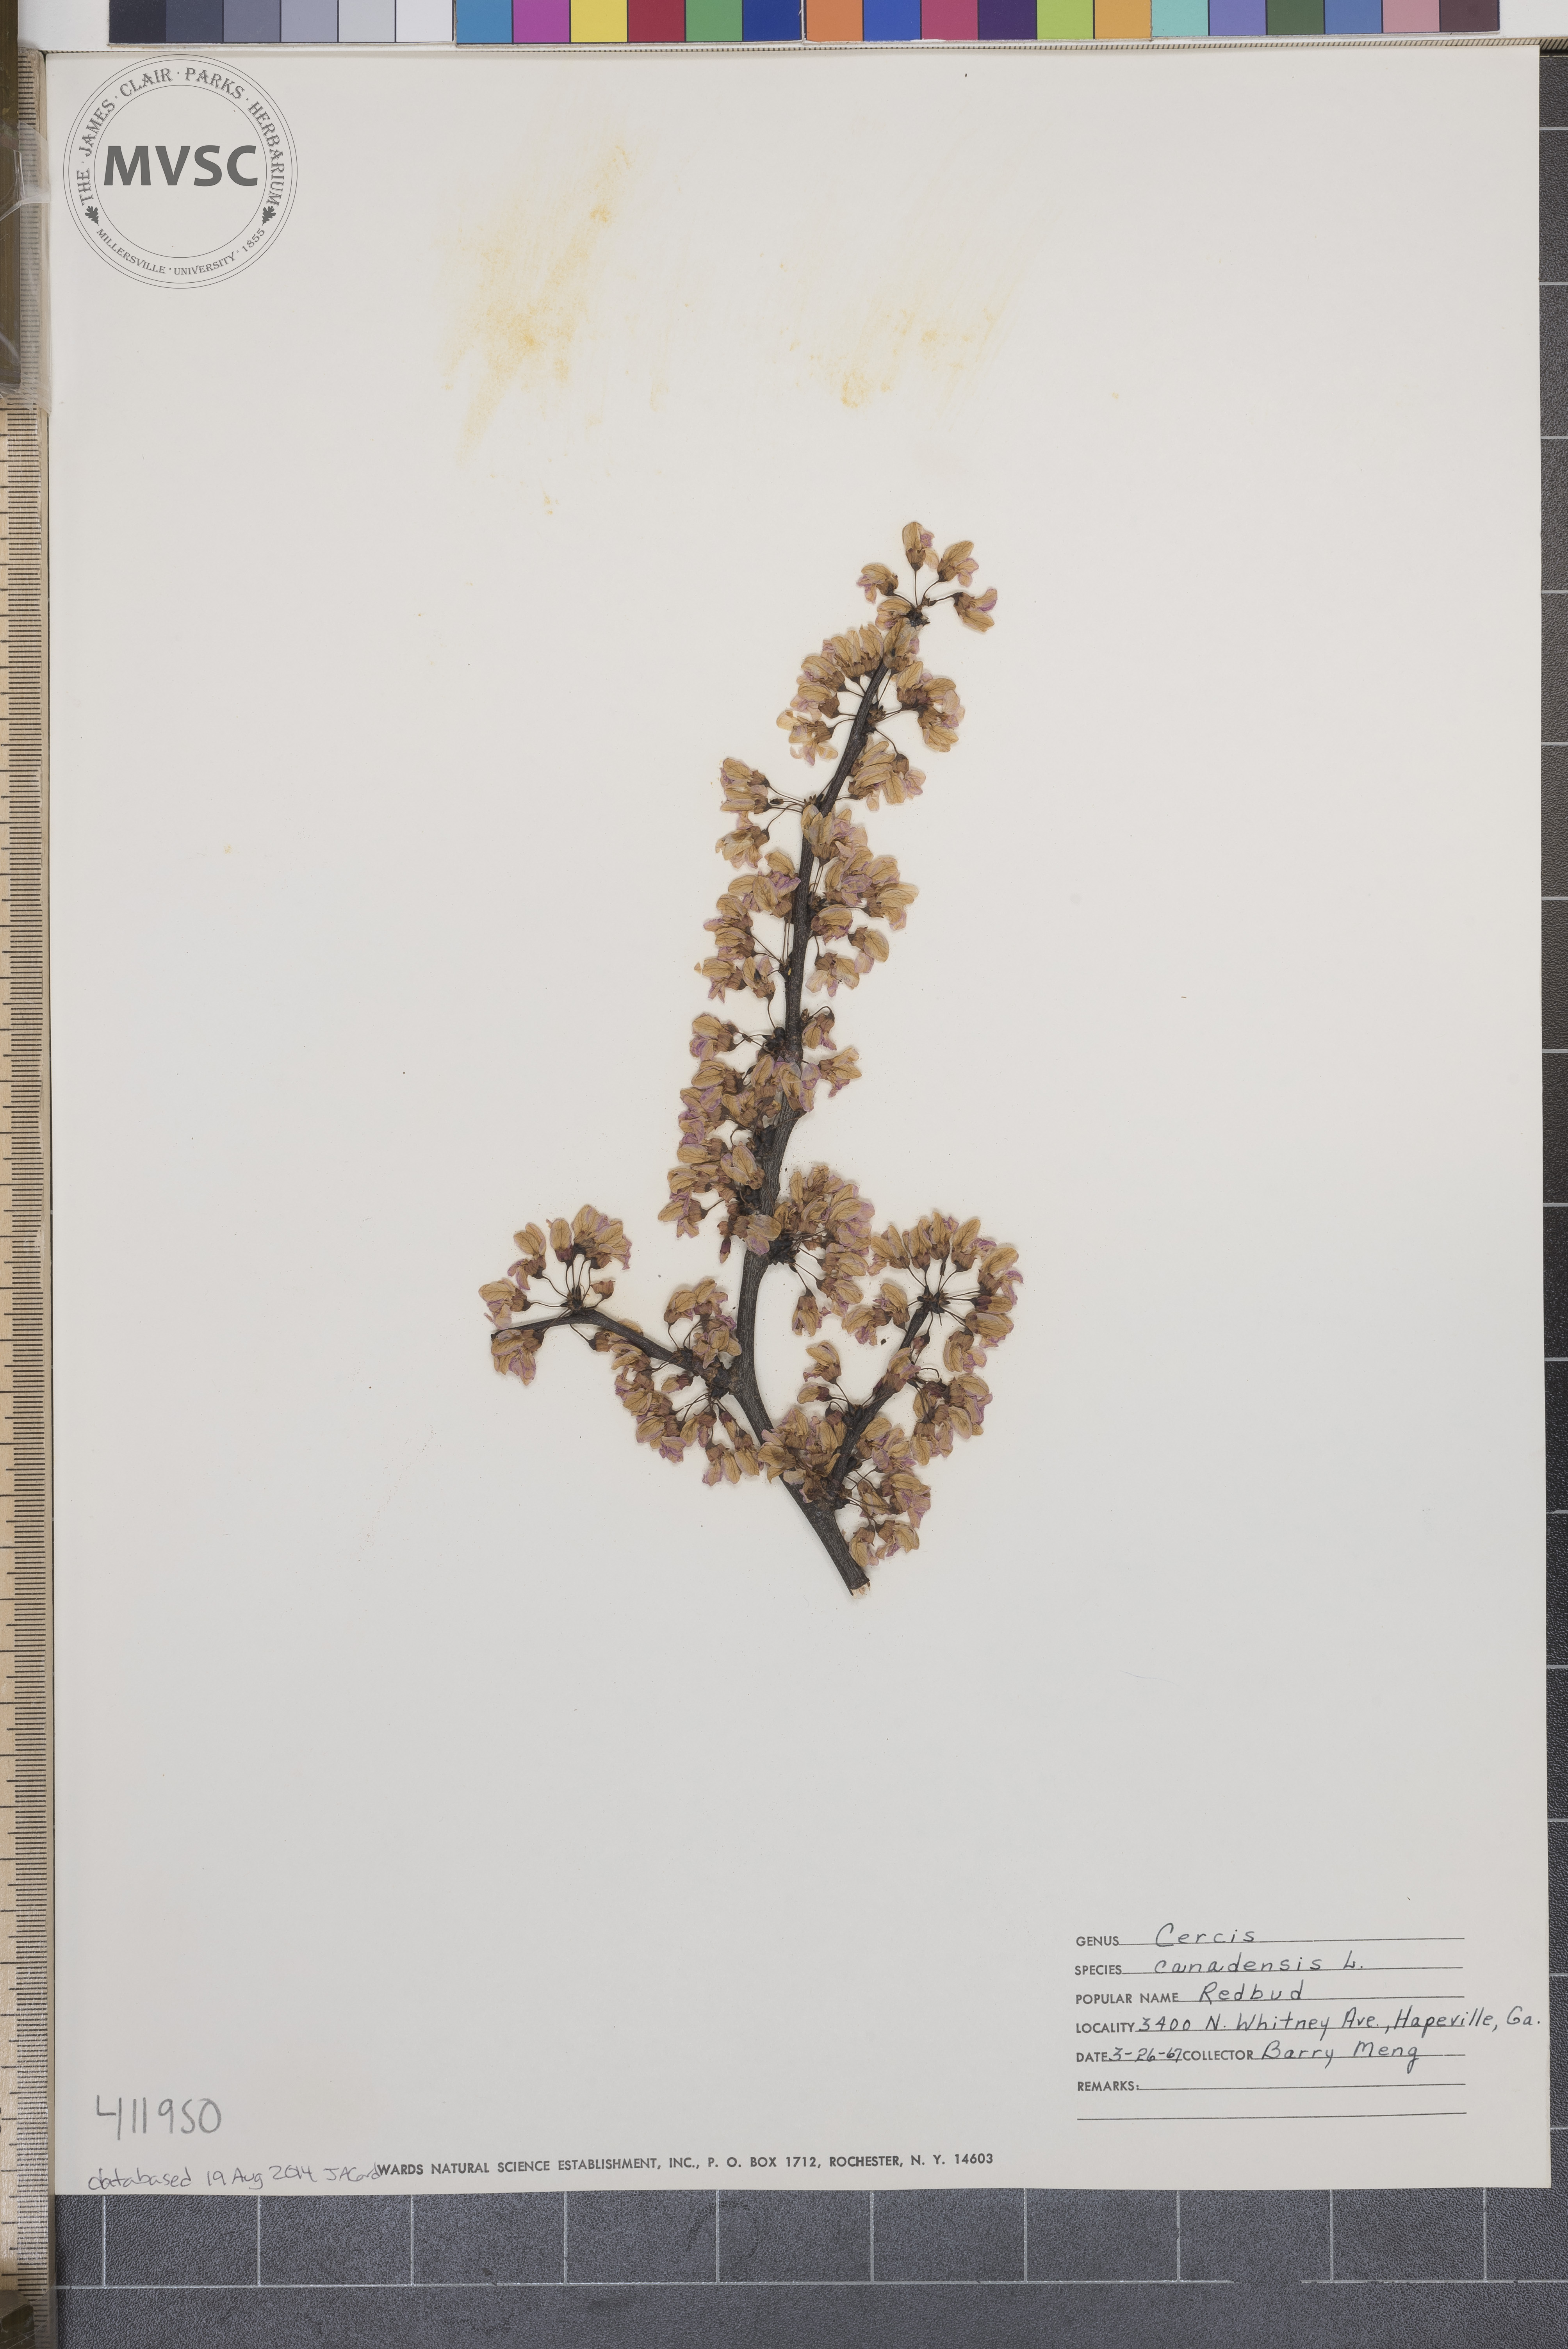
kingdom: Plantae
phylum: Tracheophyta
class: Magnoliopsida
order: Fabales
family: Fabaceae
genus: Cercis
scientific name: Cercis canadensis
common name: Redbud
